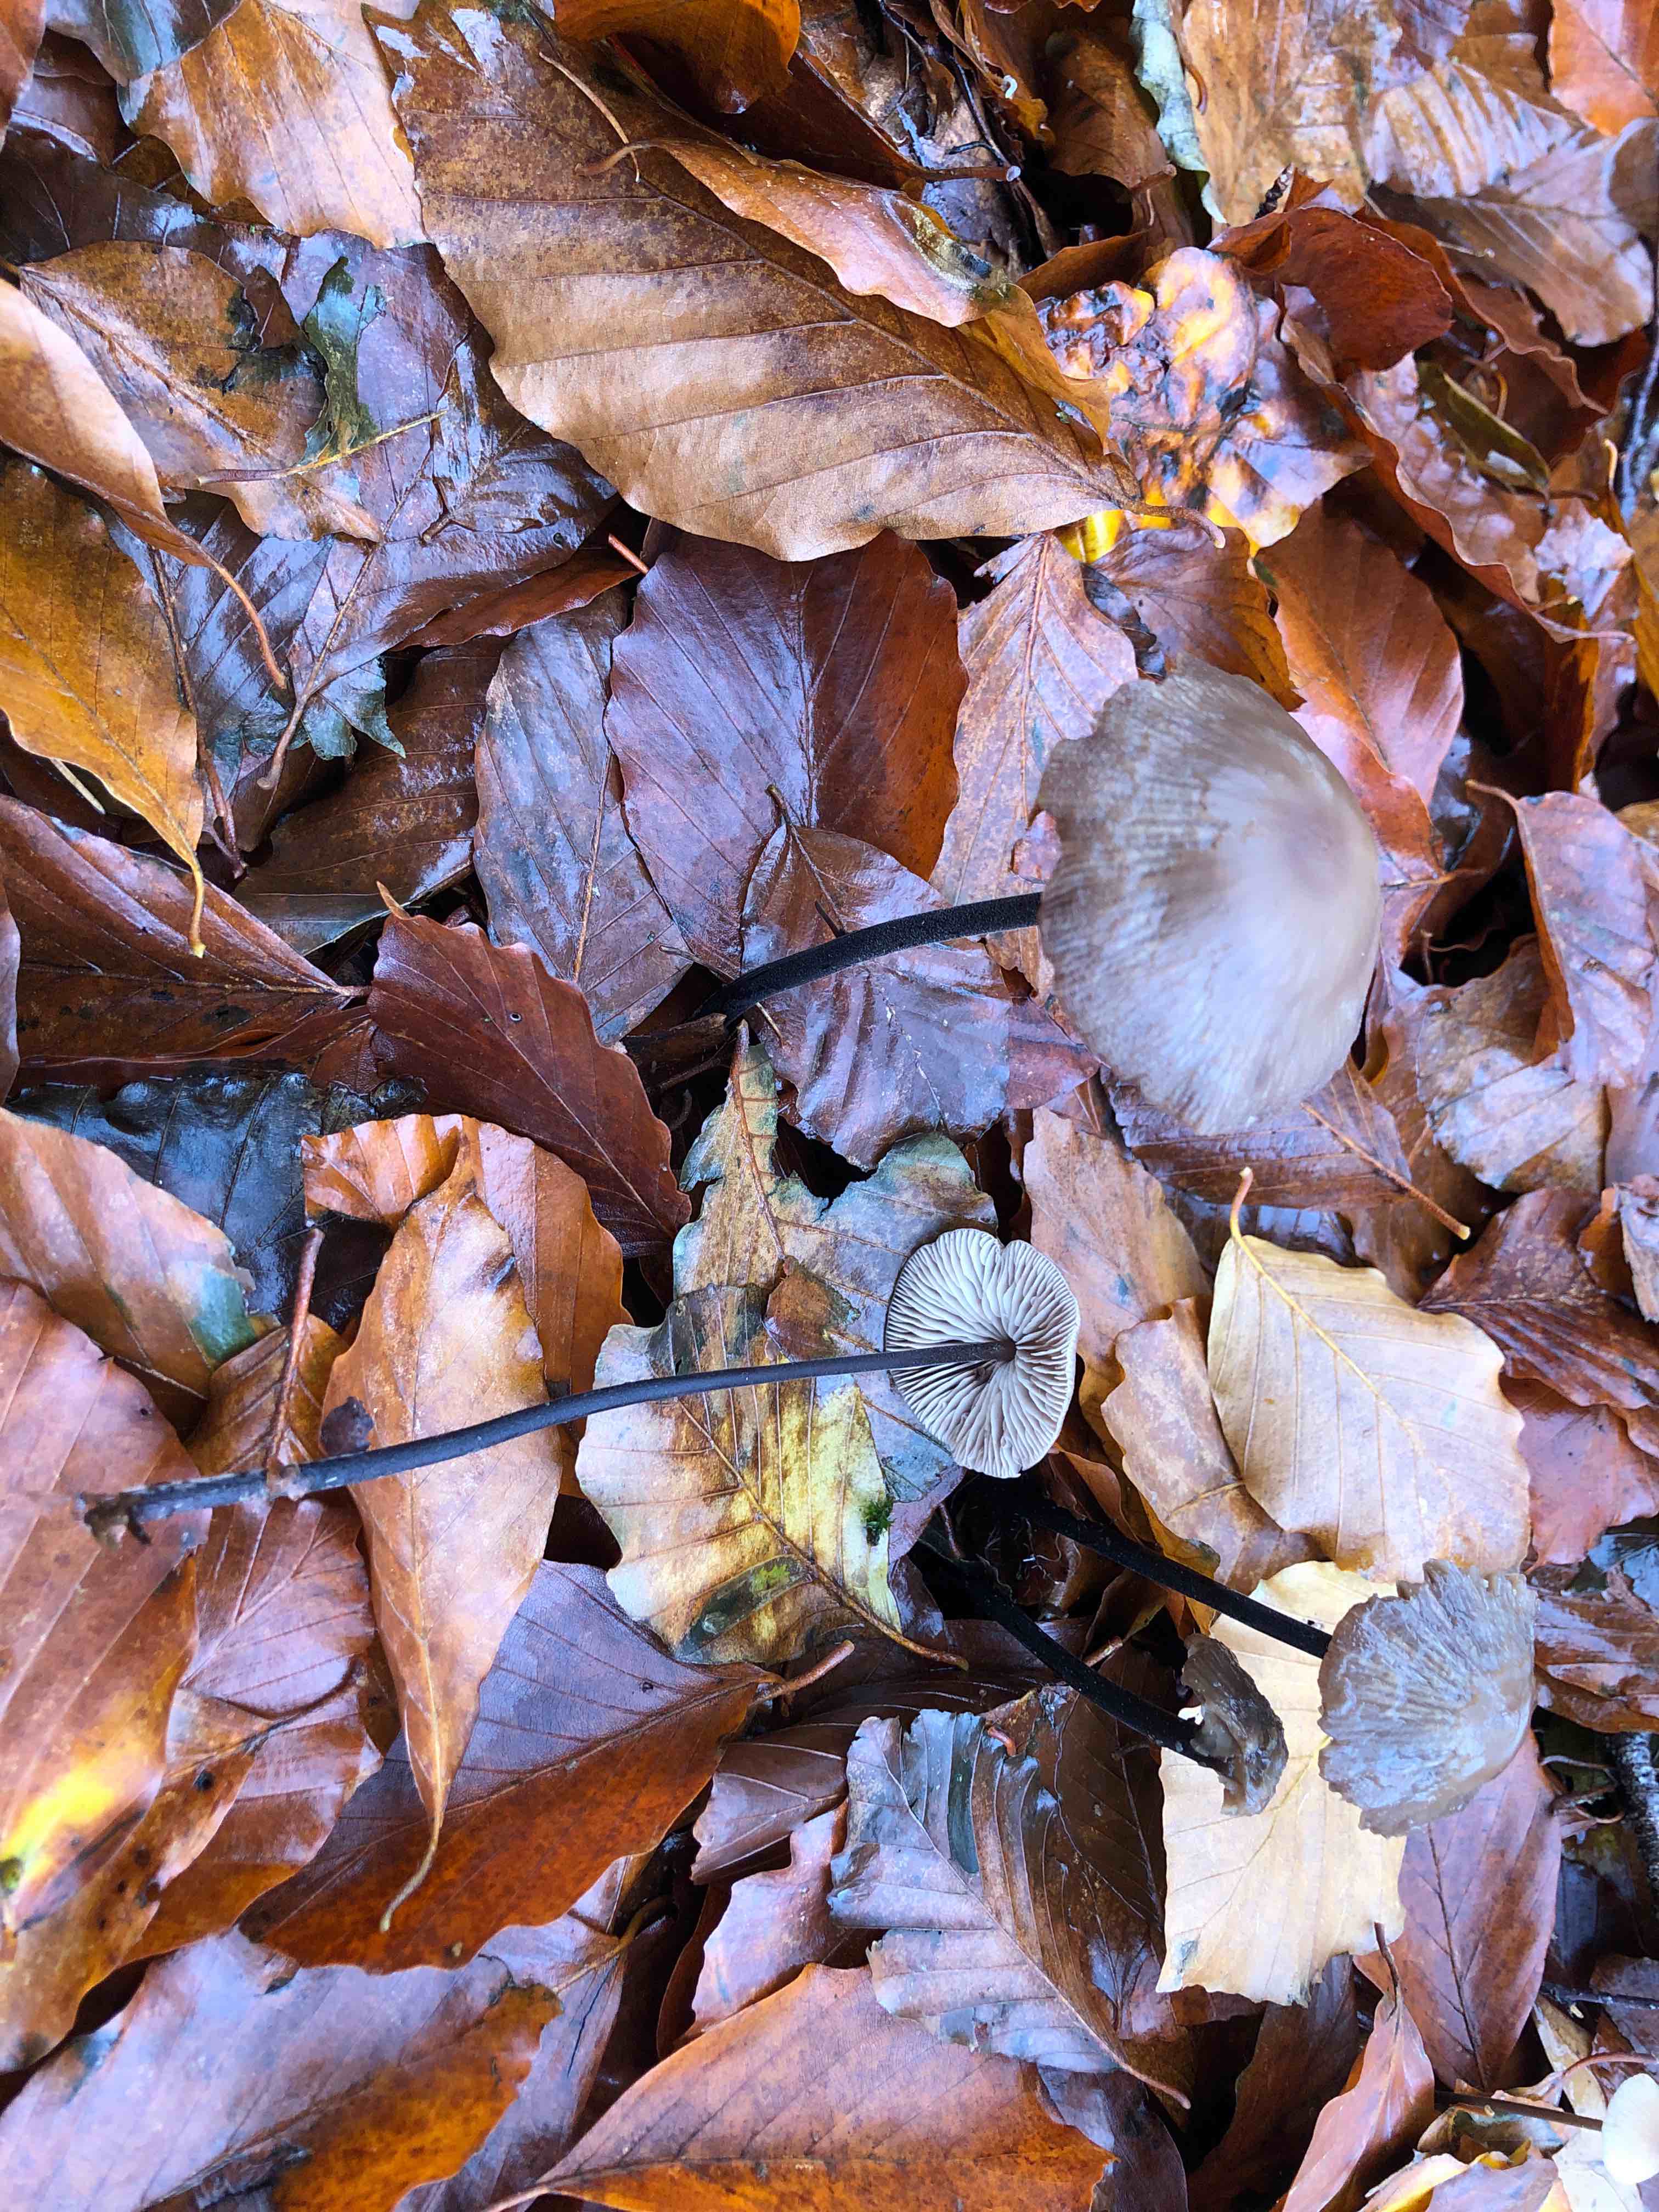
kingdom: Fungi
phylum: Basidiomycota
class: Agaricomycetes
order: Agaricales
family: Omphalotaceae
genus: Mycetinis
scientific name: Mycetinis alliaceus
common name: stor løghat
